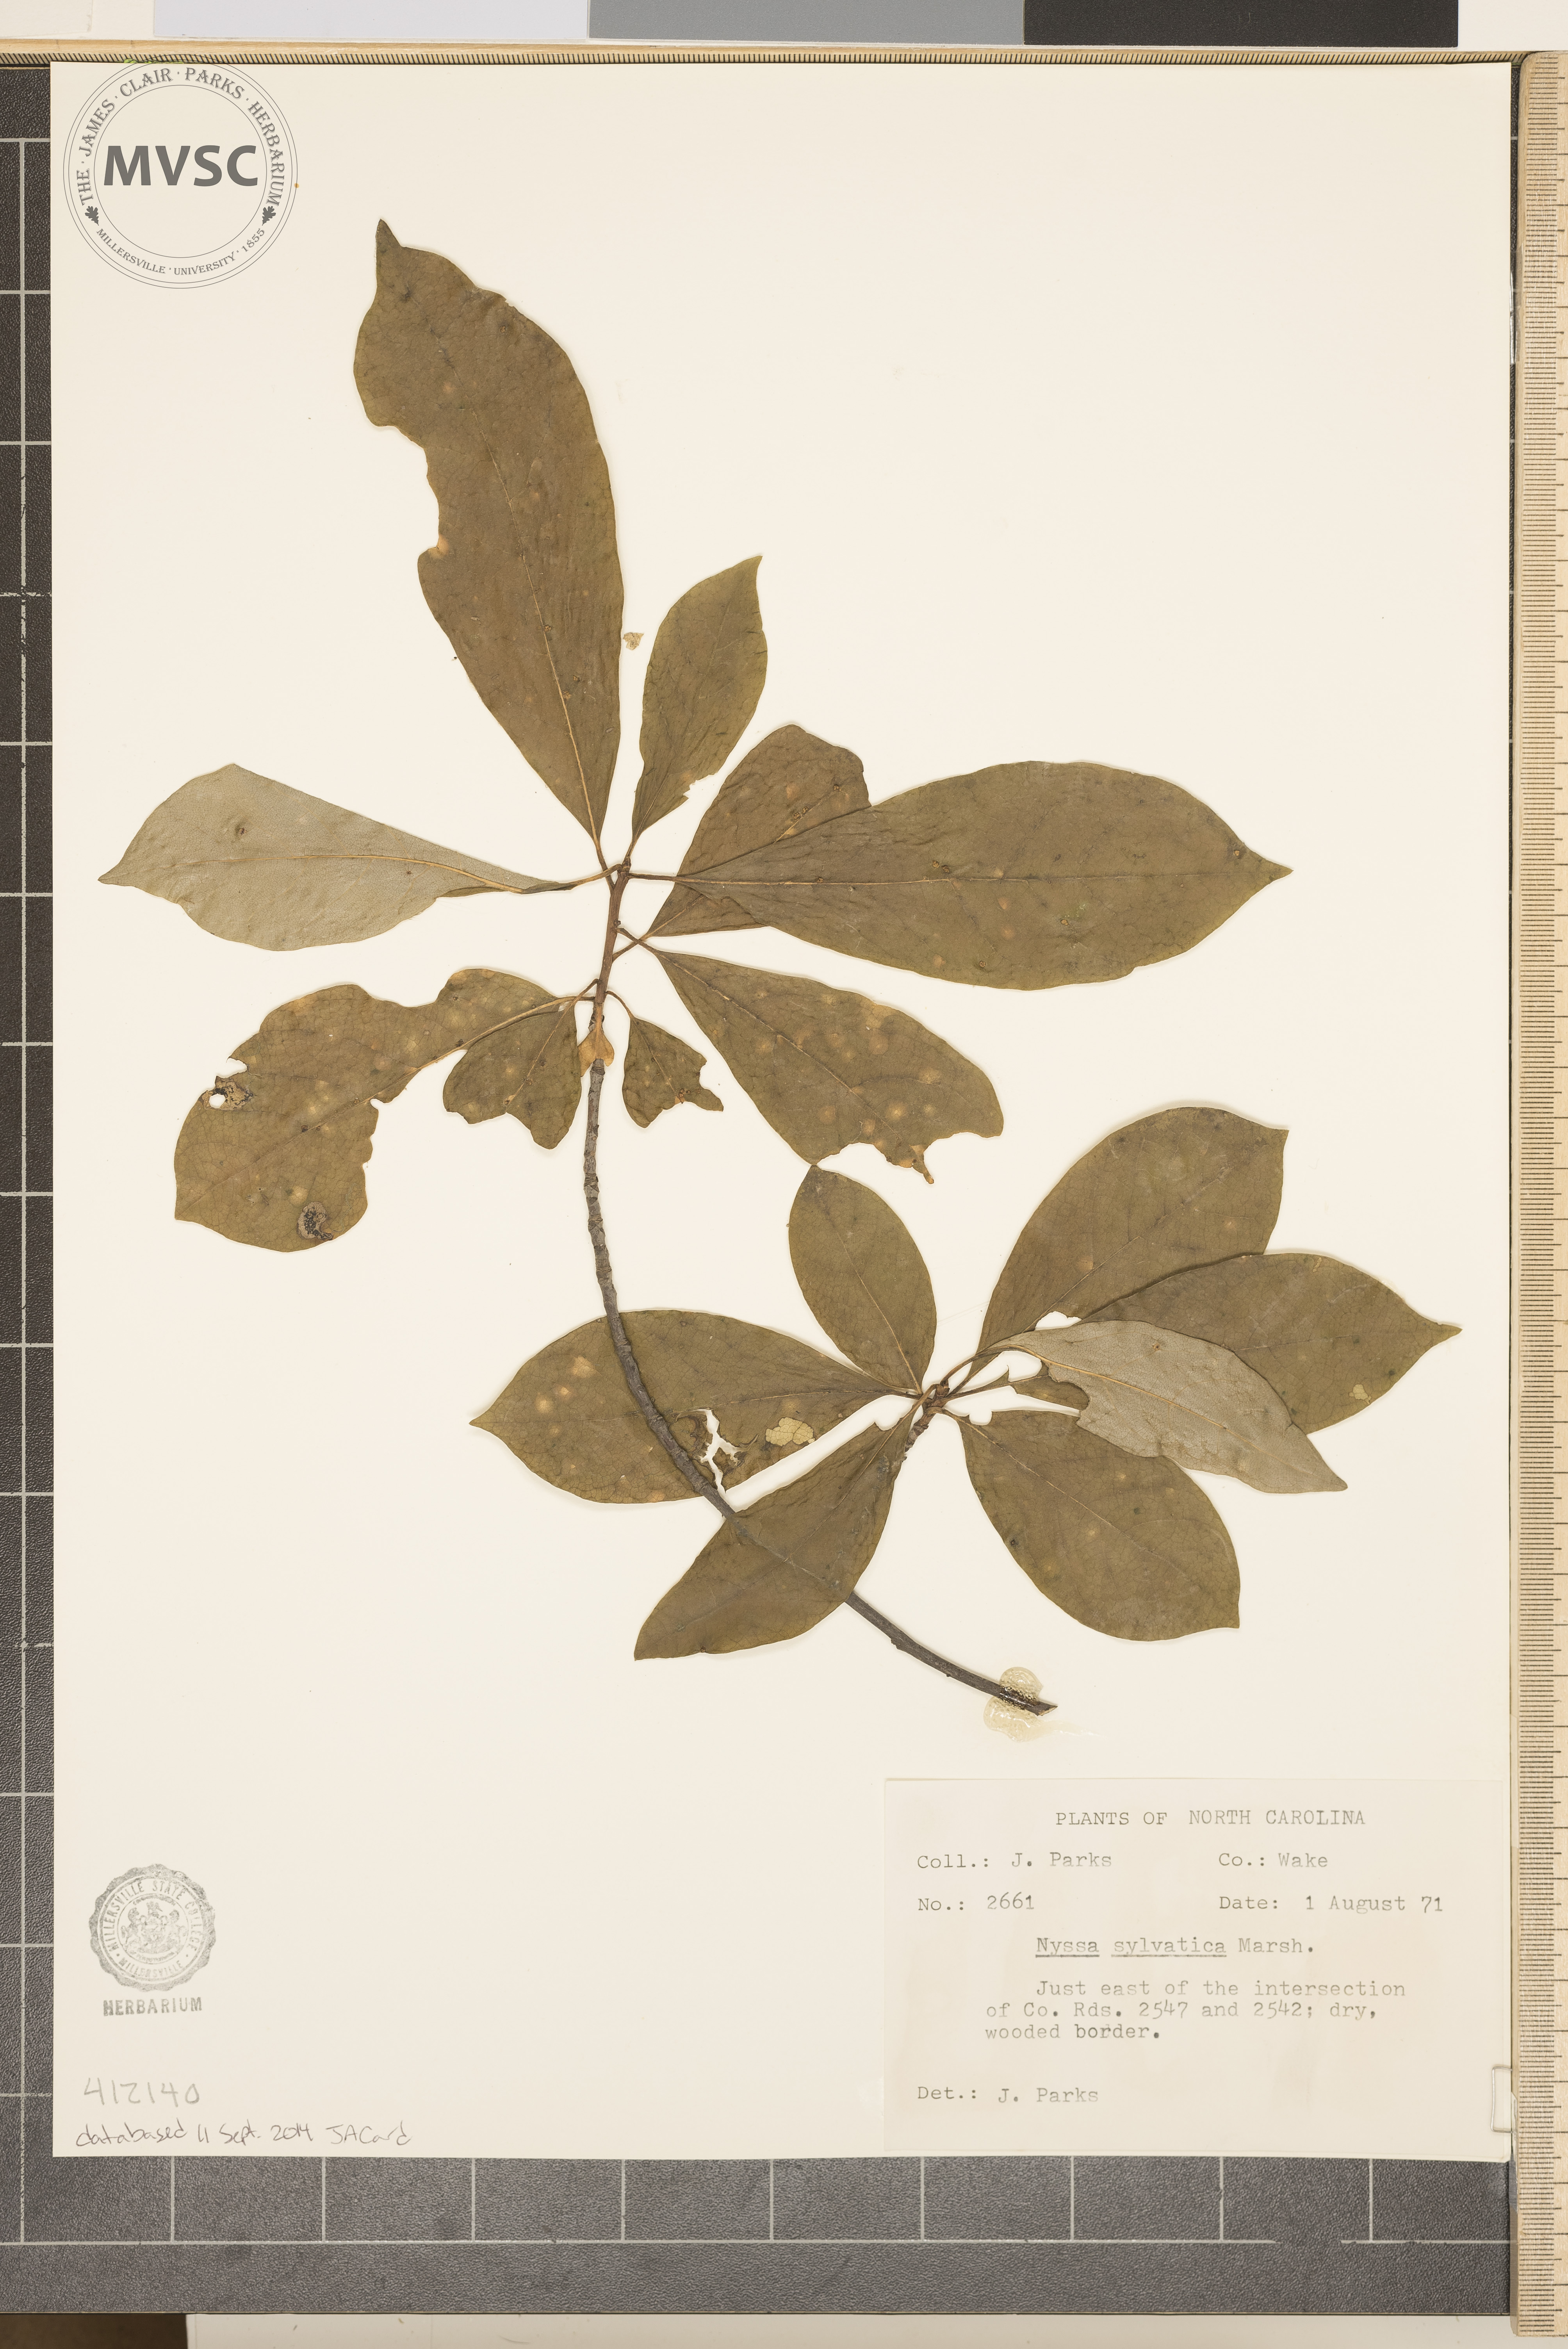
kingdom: Plantae
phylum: Tracheophyta
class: Magnoliopsida
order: Cornales
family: Nyssaceae
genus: Nyssa
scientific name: Nyssa sylvatica
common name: Black tupelo
